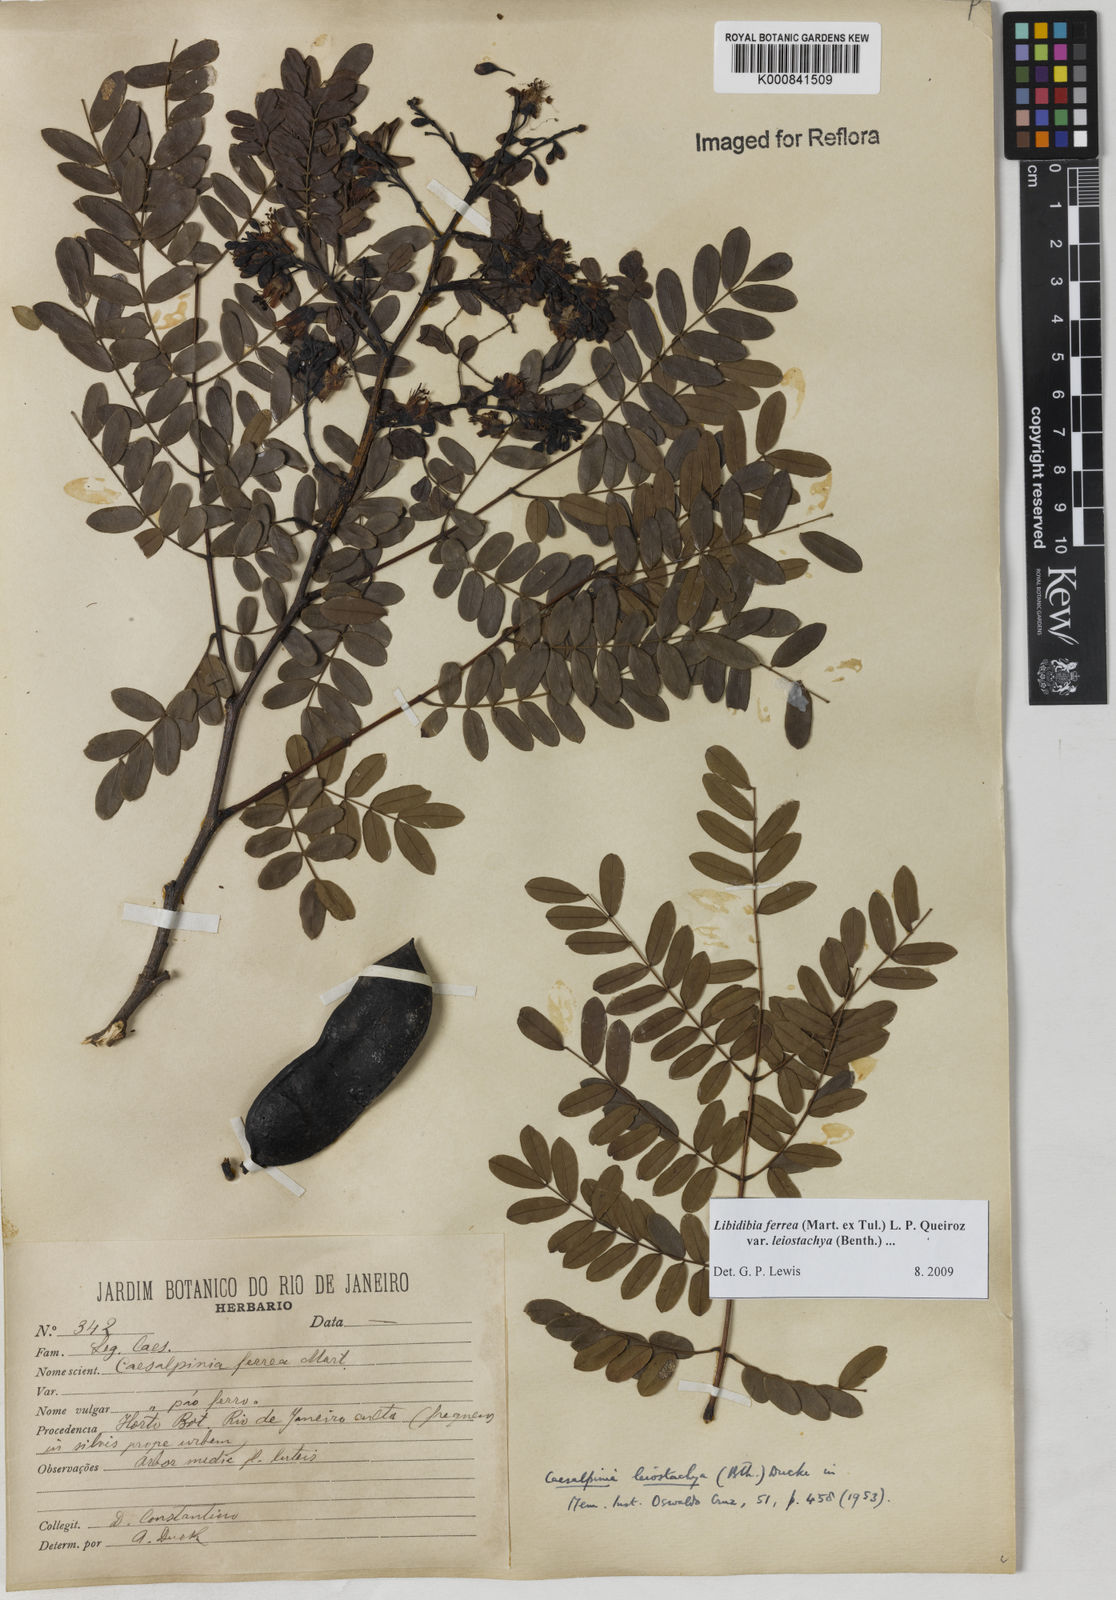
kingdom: Plantae
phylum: Tracheophyta
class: Magnoliopsida
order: Fabales
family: Fabaceae
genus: Libidibia
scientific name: Libidibia ferrea
